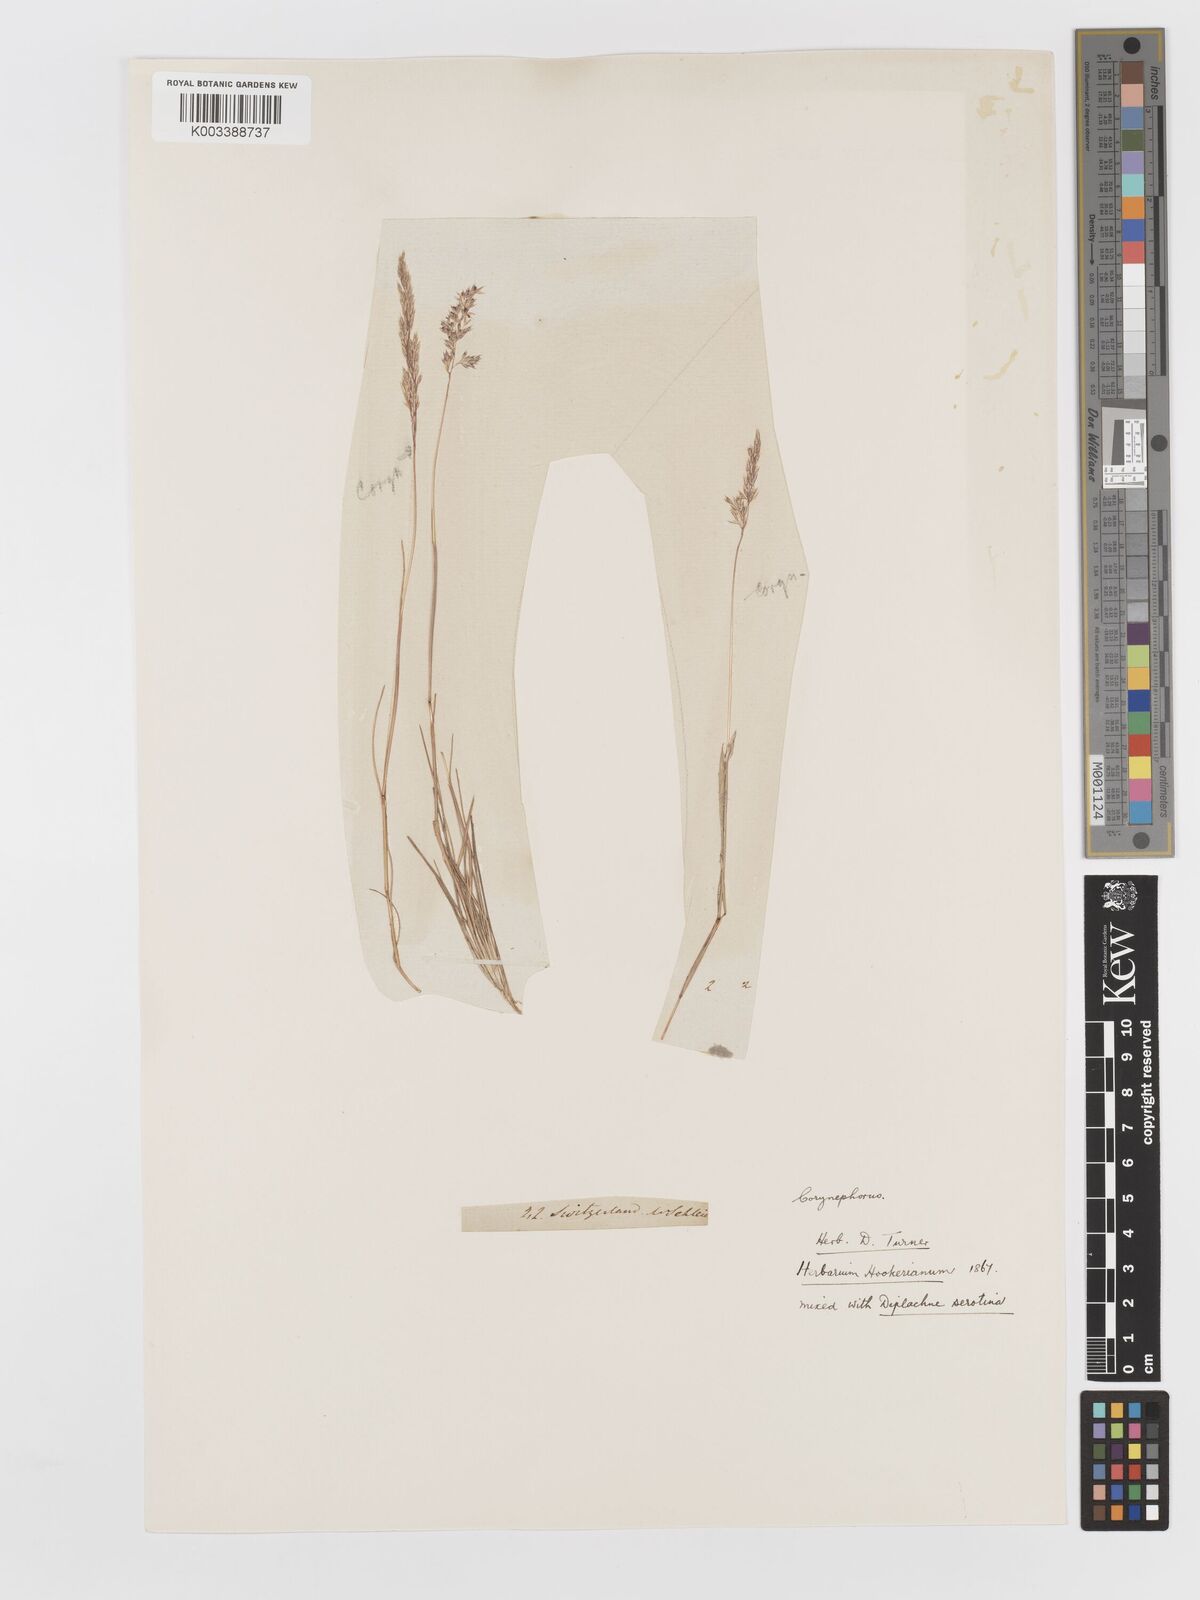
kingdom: Plantae
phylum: Tracheophyta
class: Liliopsida
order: Poales
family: Poaceae
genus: Corynephorus
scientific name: Corynephorus canescens
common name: Grey hair-grass
